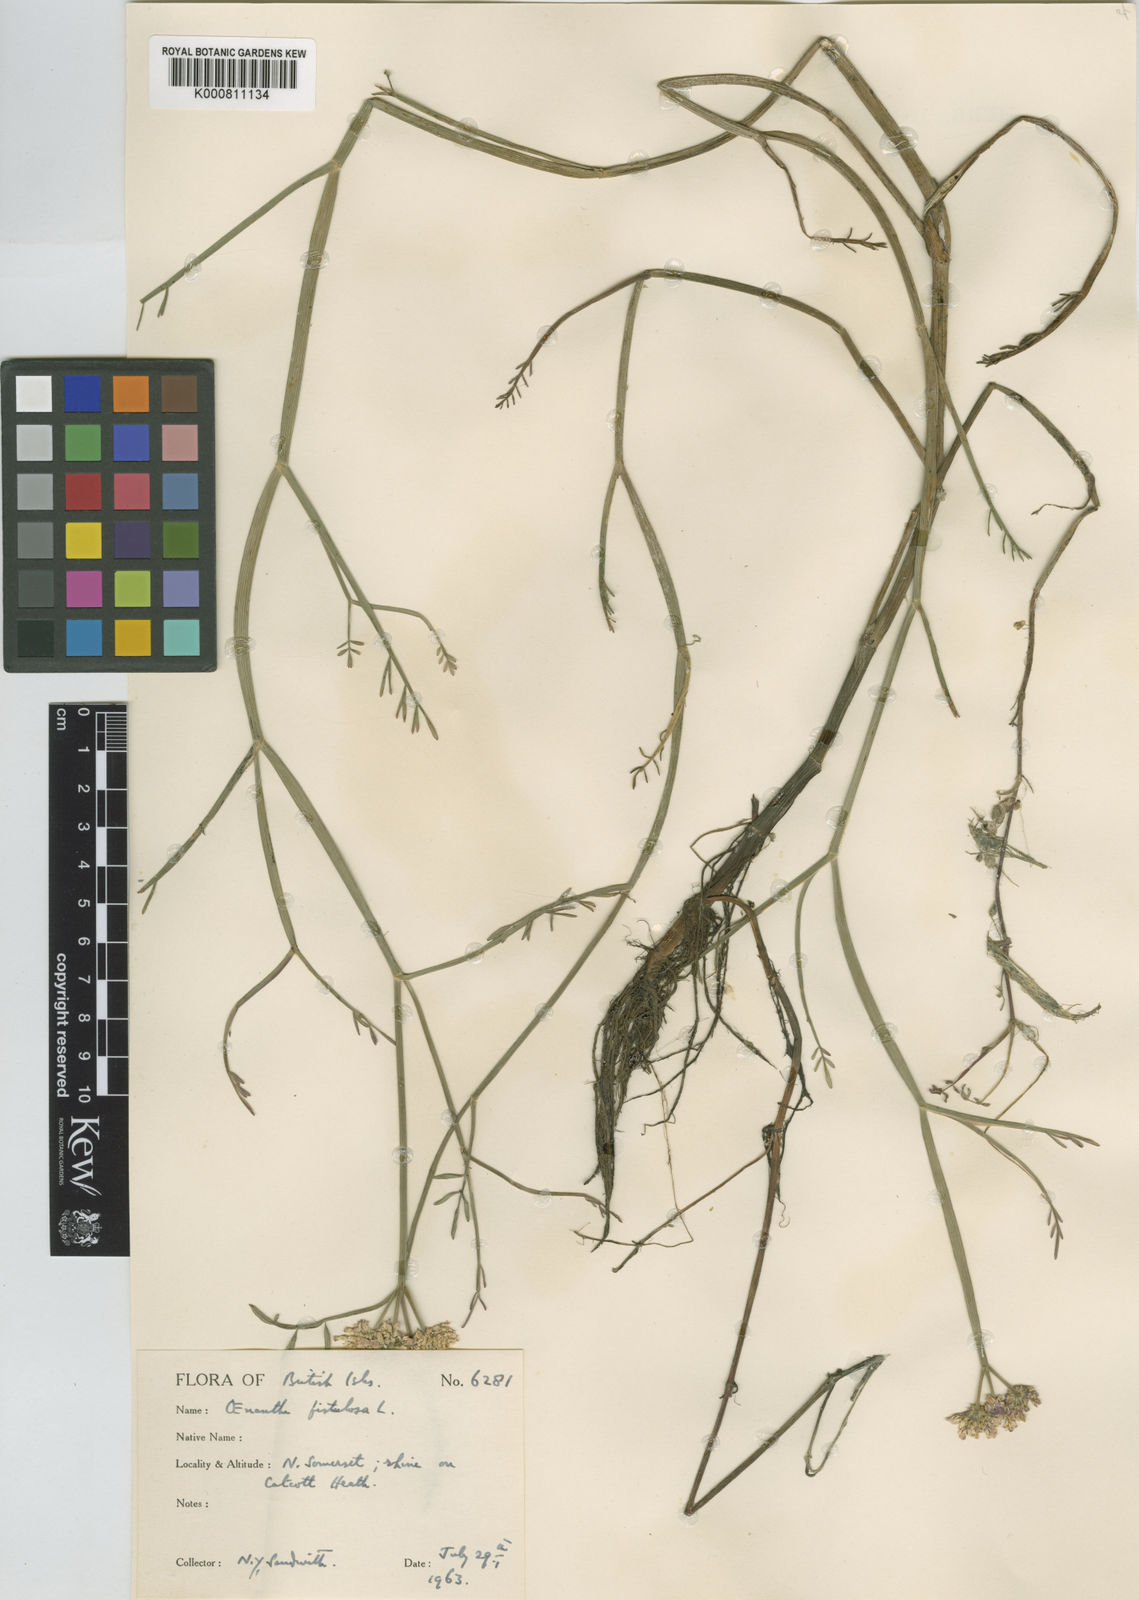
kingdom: Plantae
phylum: Tracheophyta
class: Magnoliopsida
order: Apiales
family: Apiaceae
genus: Oenanthe
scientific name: Oenanthe fistulosa
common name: Tubular water-dropwort
